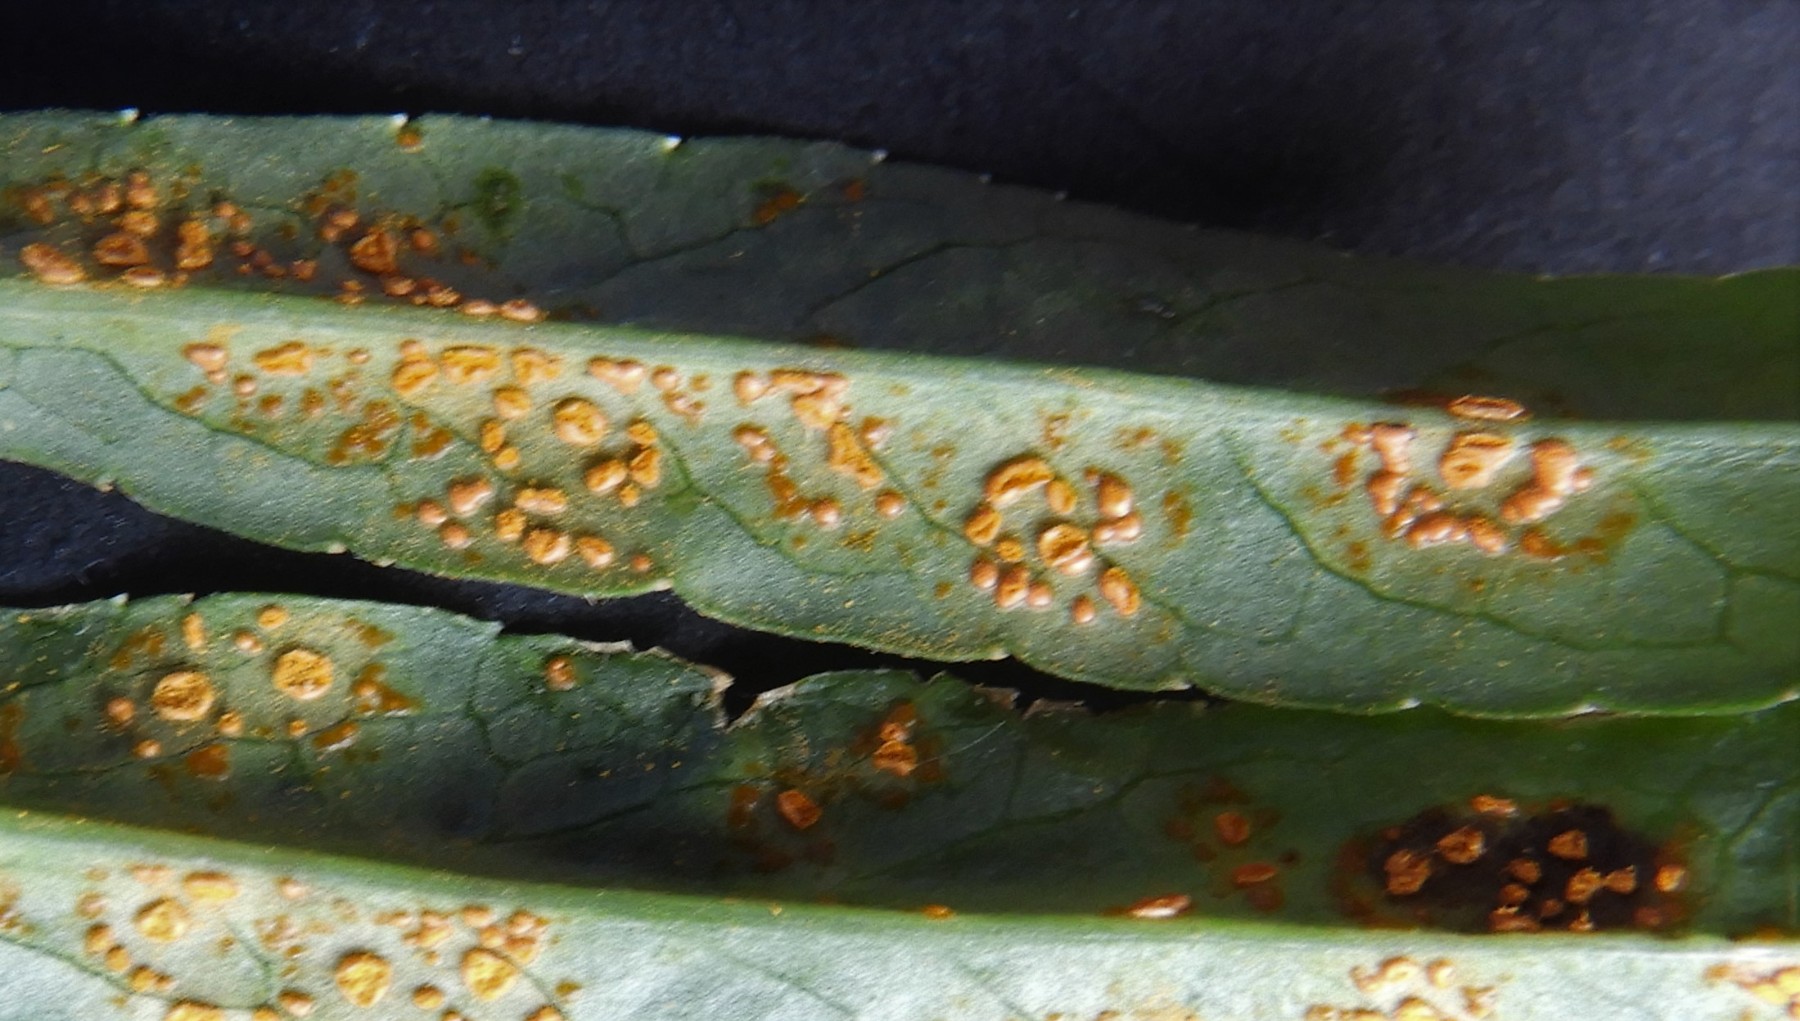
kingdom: Fungi
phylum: Basidiomycota
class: Pucciniomycetes
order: Pucciniales
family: Coleosporiaceae
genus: Coleosporium
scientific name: Coleosporium campanulae
